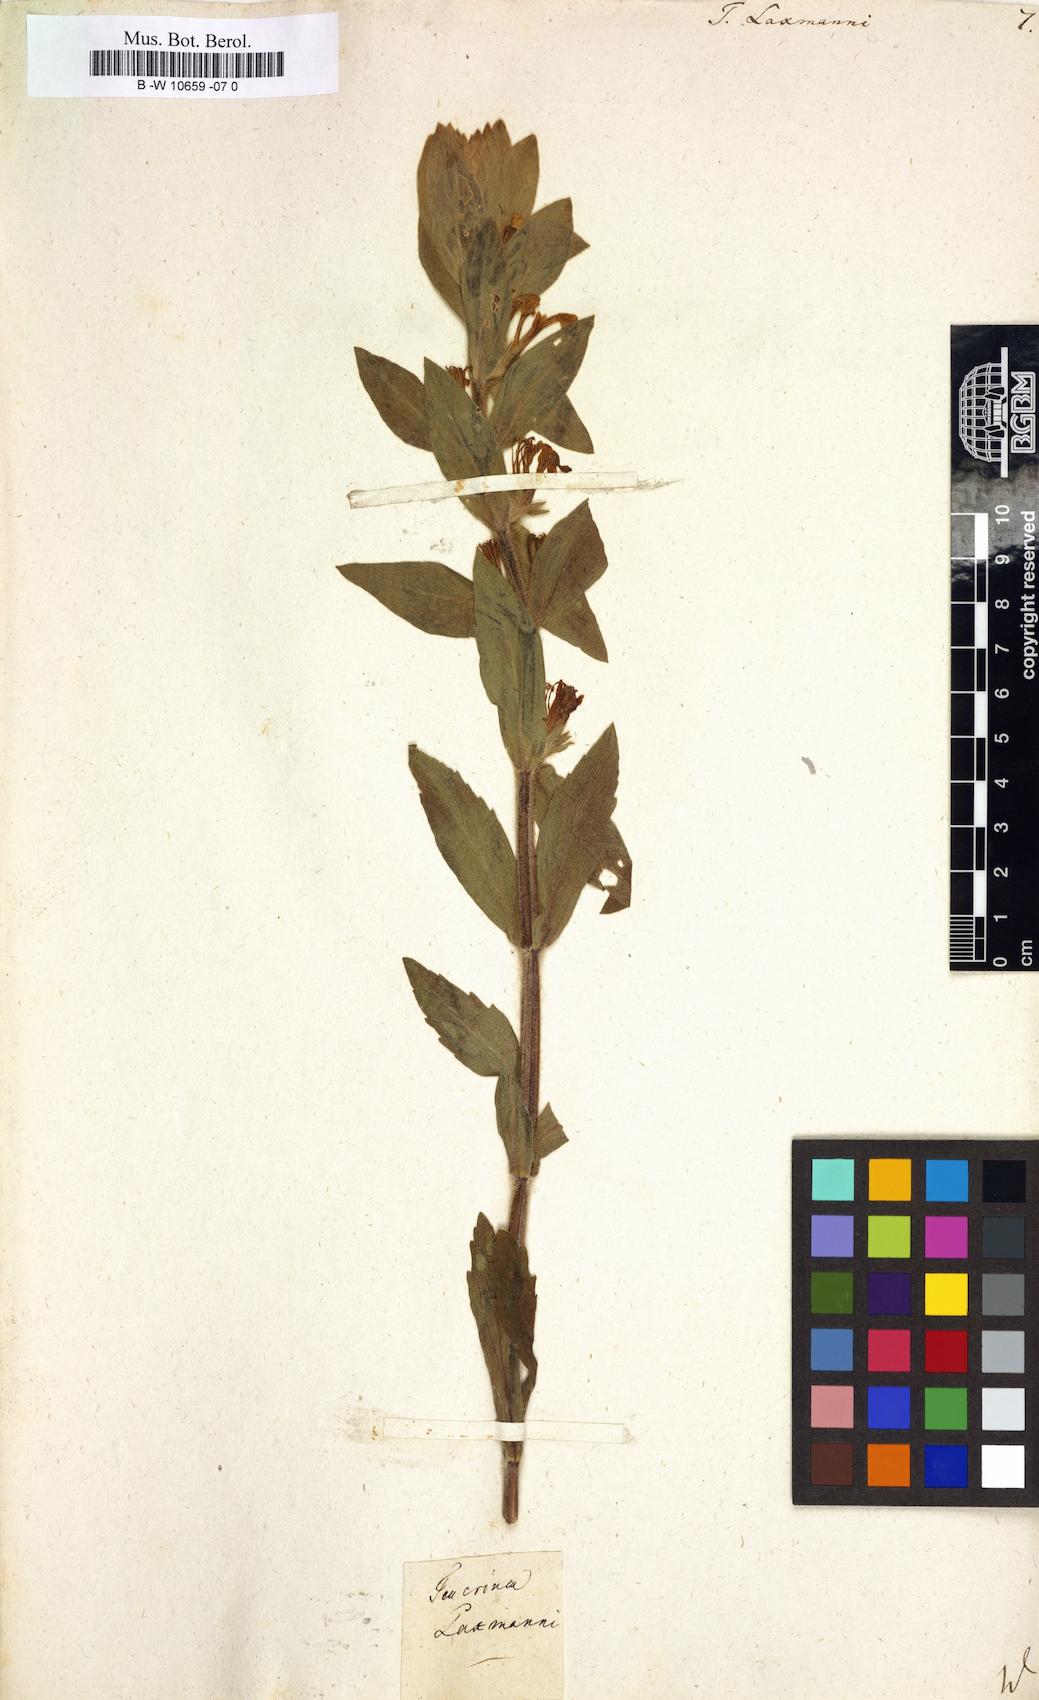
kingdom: Plantae
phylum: Tracheophyta
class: Magnoliopsida
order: Lamiales
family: Lamiaceae
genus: Ajuga
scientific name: Ajuga laxmannii
